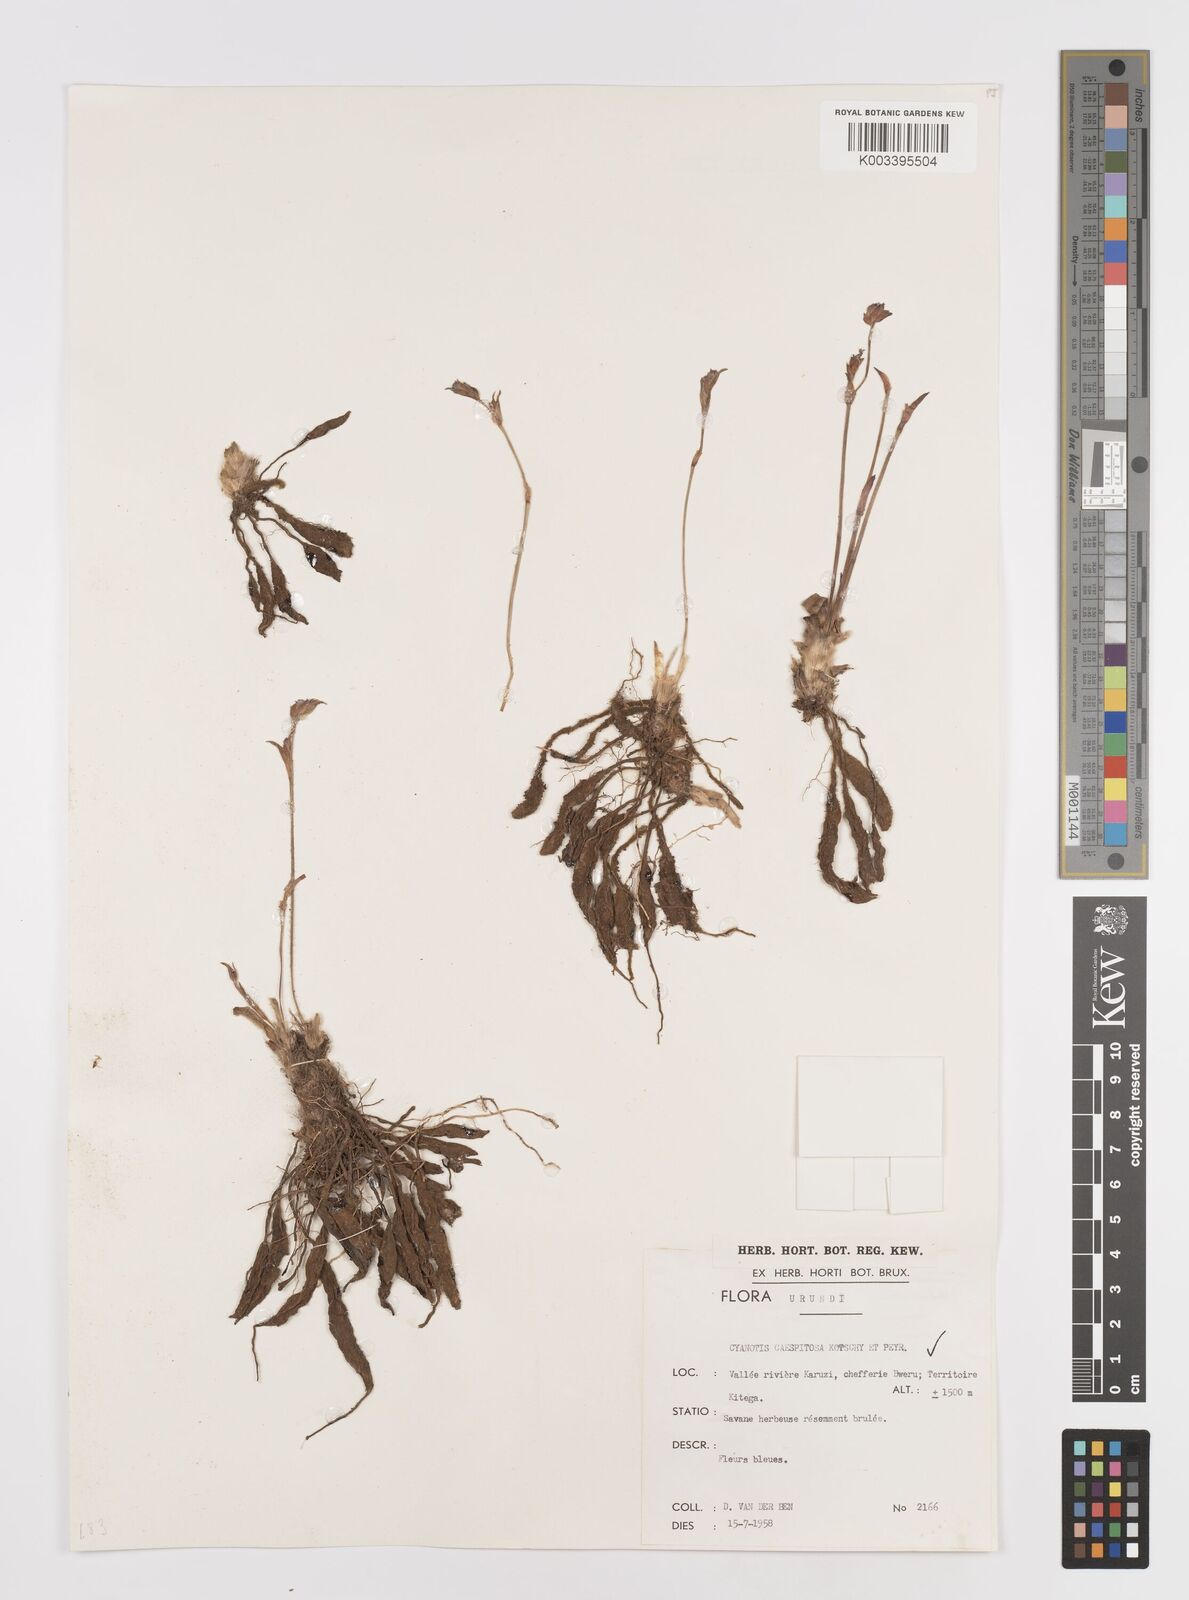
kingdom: Plantae
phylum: Tracheophyta
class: Liliopsida
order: Commelinales
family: Commelinaceae
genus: Cyanotis
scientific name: Cyanotis caespitosa
